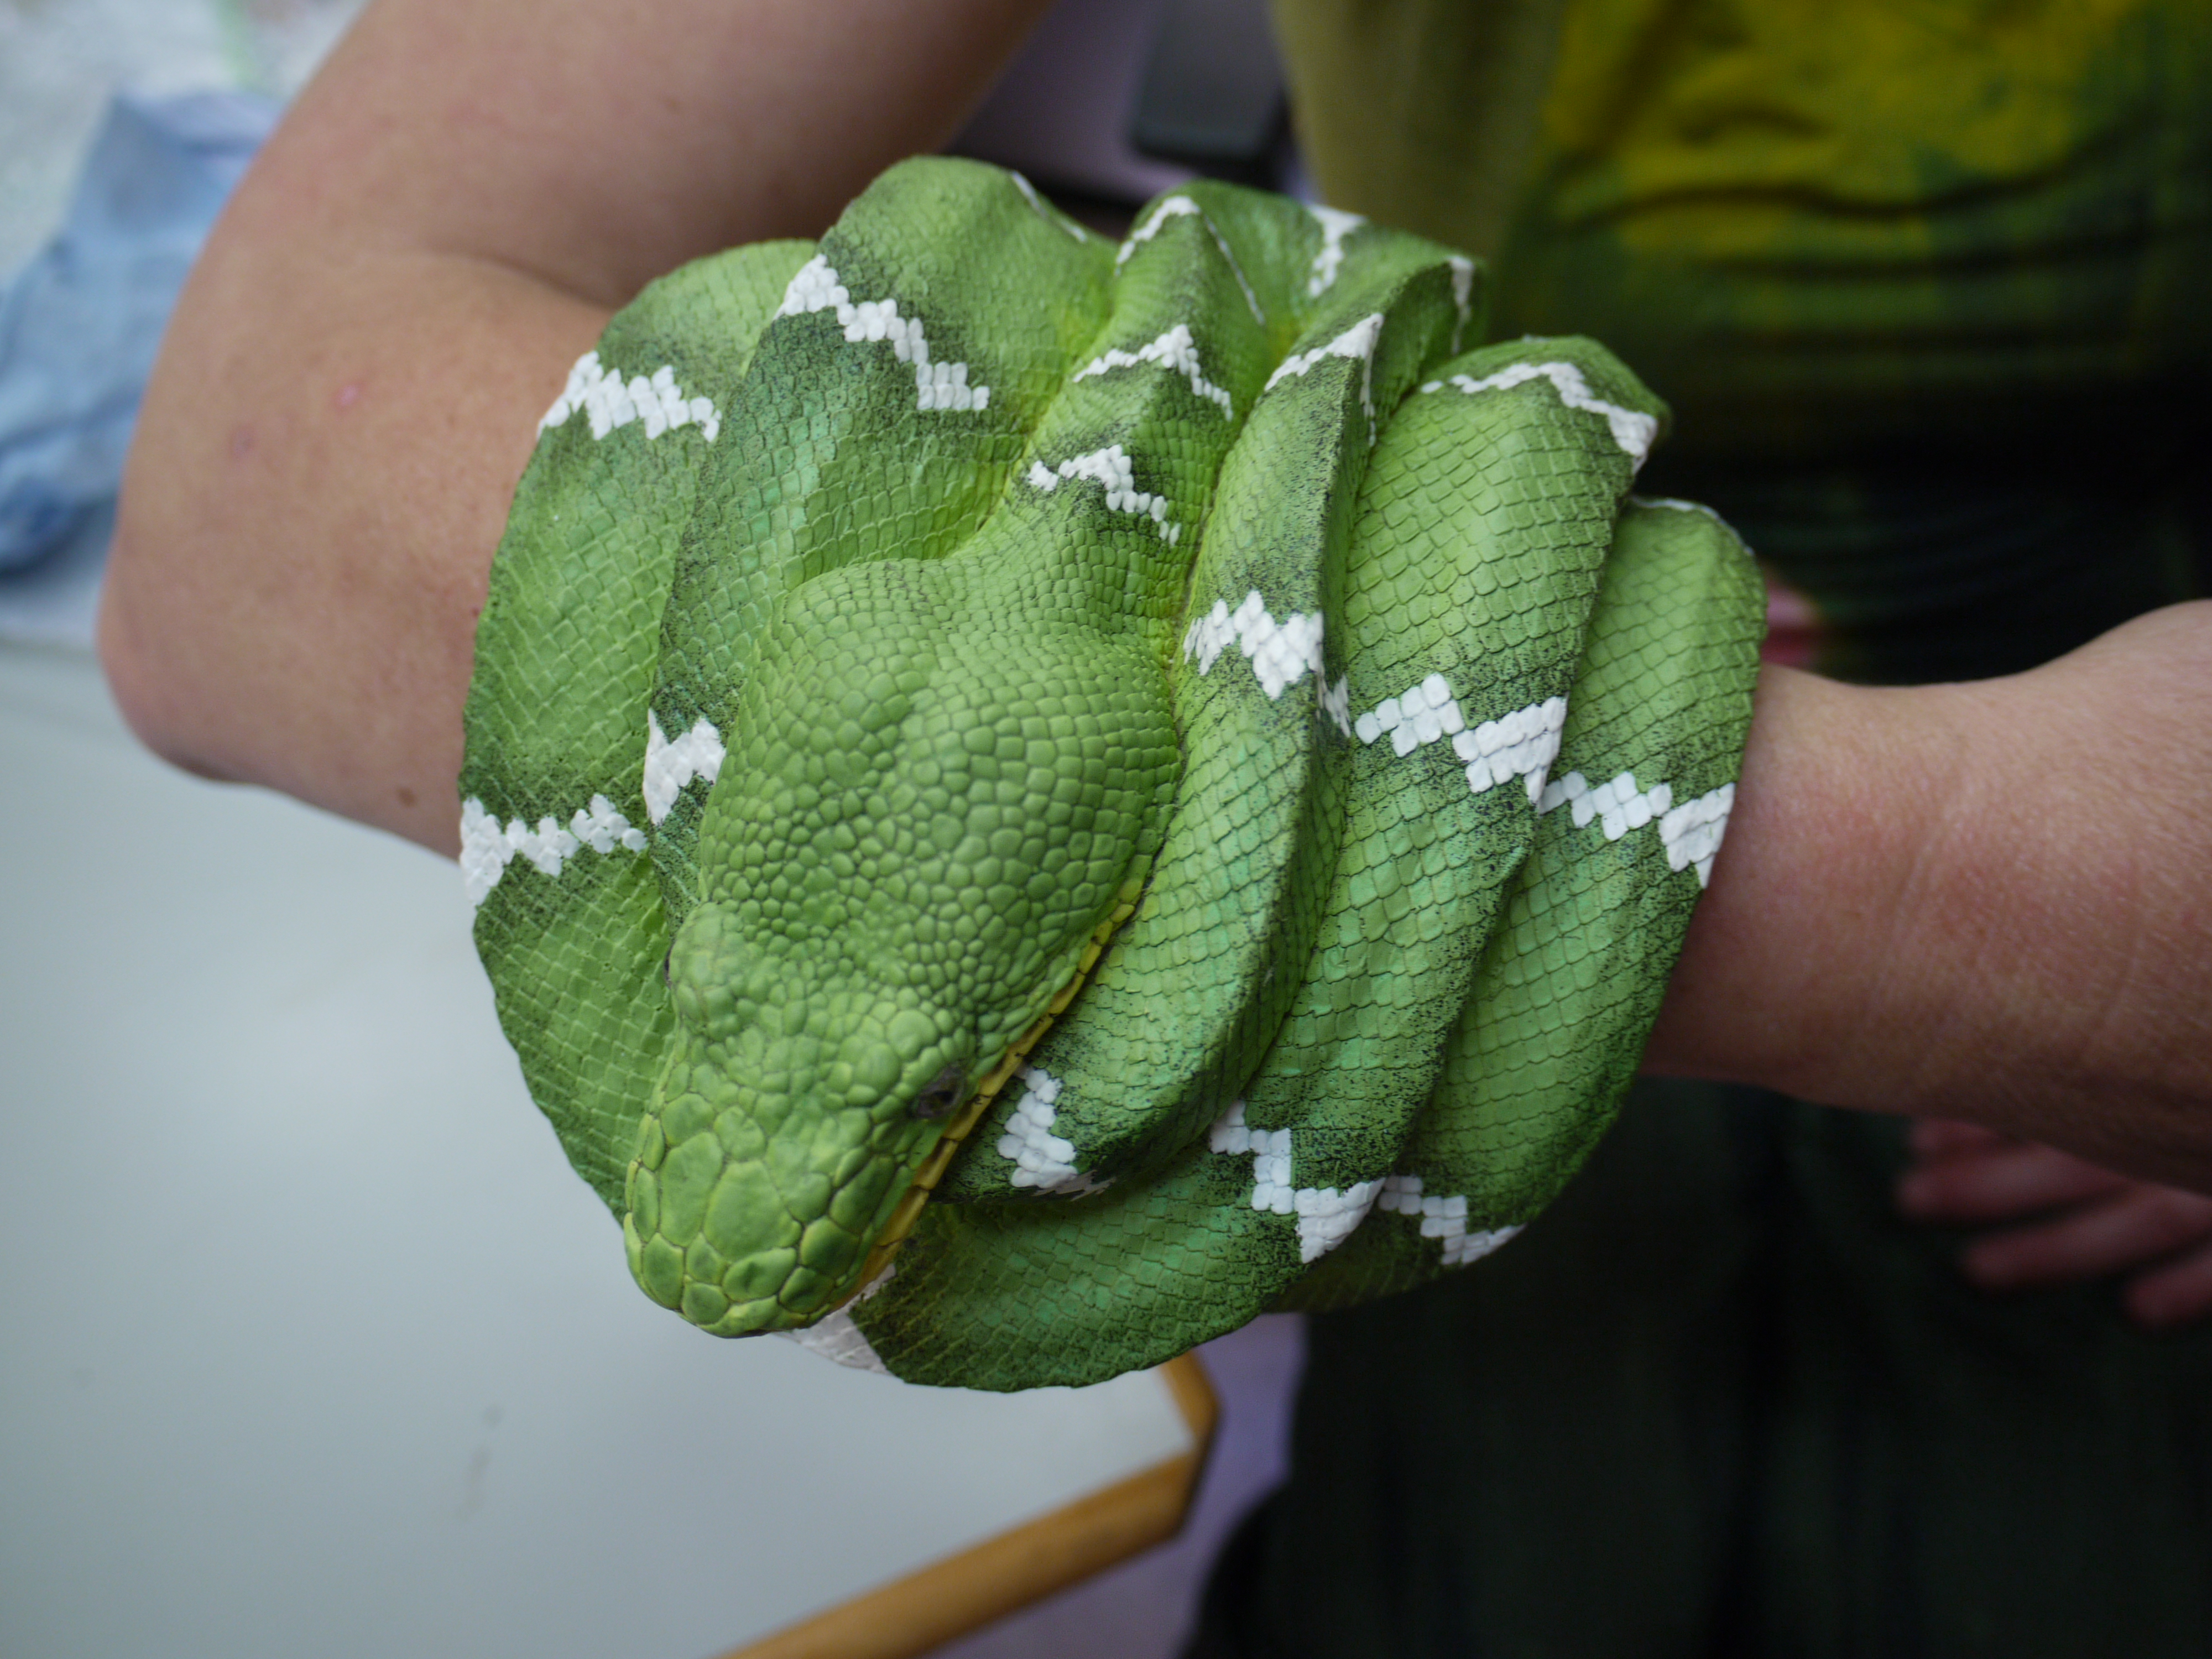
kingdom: Animalia
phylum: Chordata
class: Squamata
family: Boidae
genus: Corallus
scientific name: Corallus hortulana
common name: Garden tree boa
